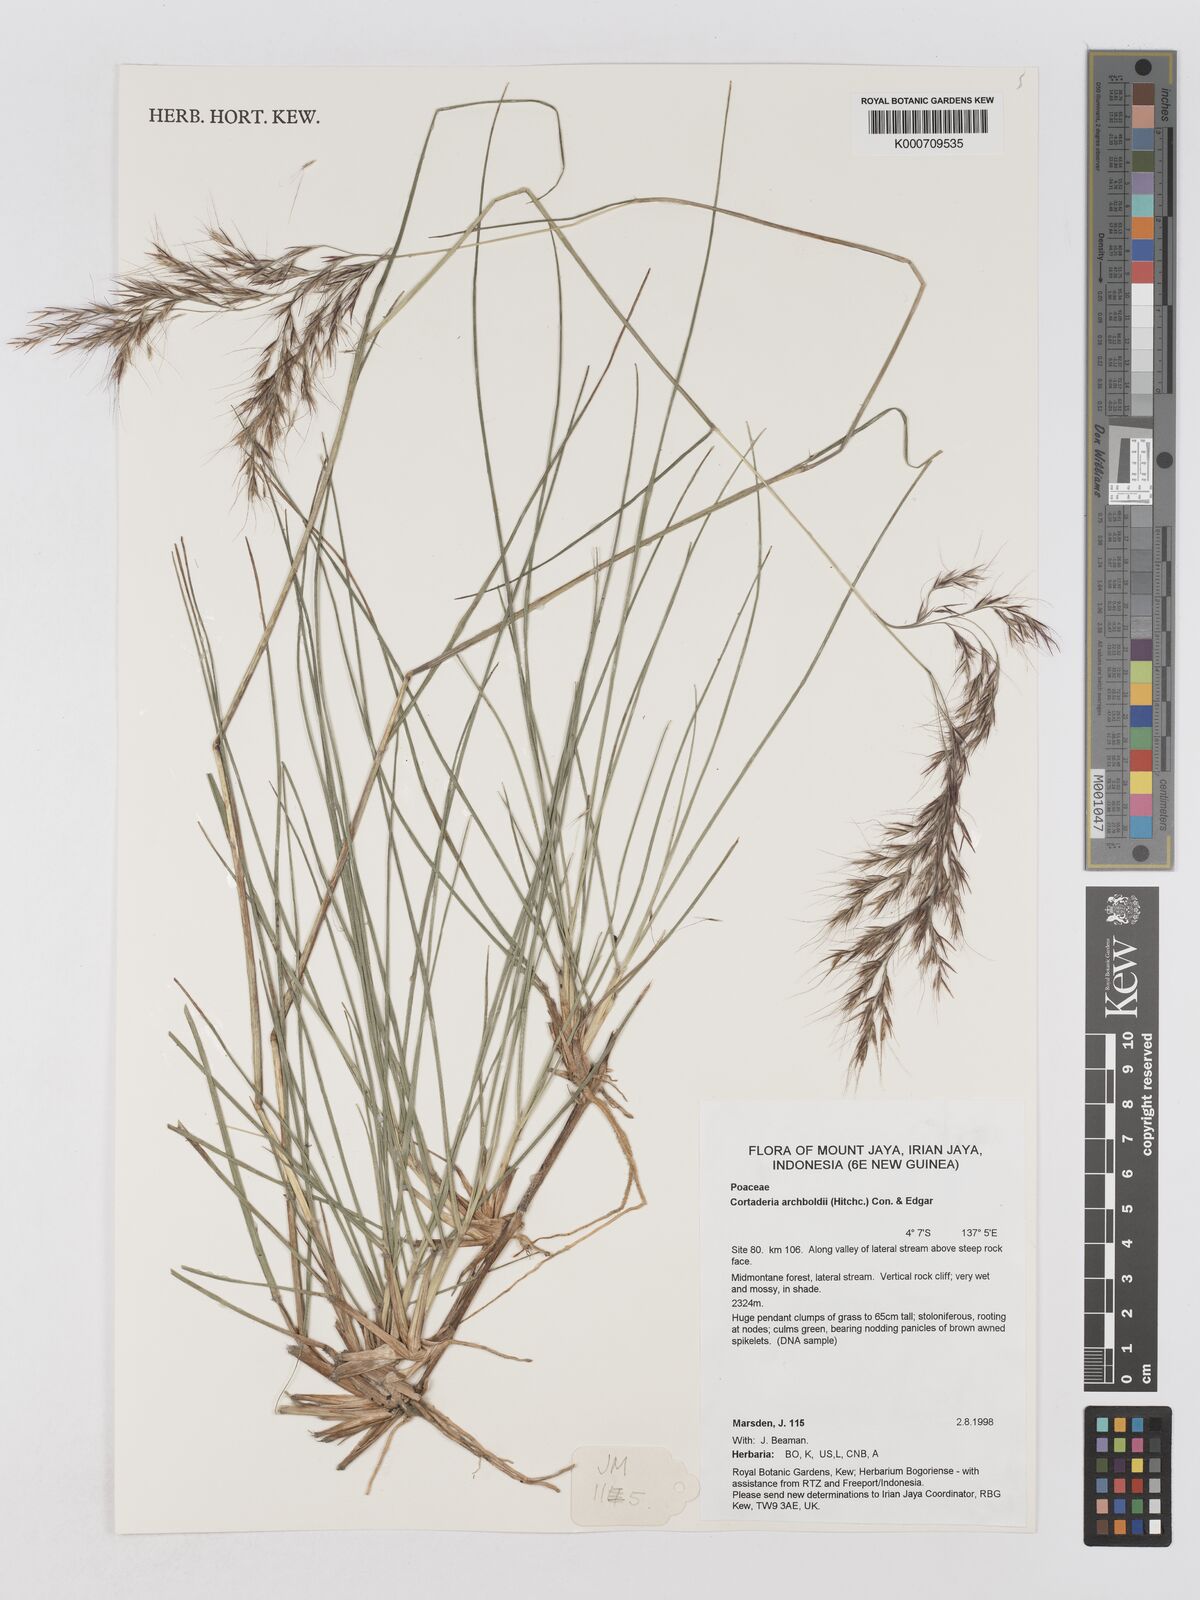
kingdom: Plantae
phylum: Tracheophyta
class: Liliopsida
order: Poales
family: Poaceae
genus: Chimaerochloa
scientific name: Chimaerochloa archboldii
